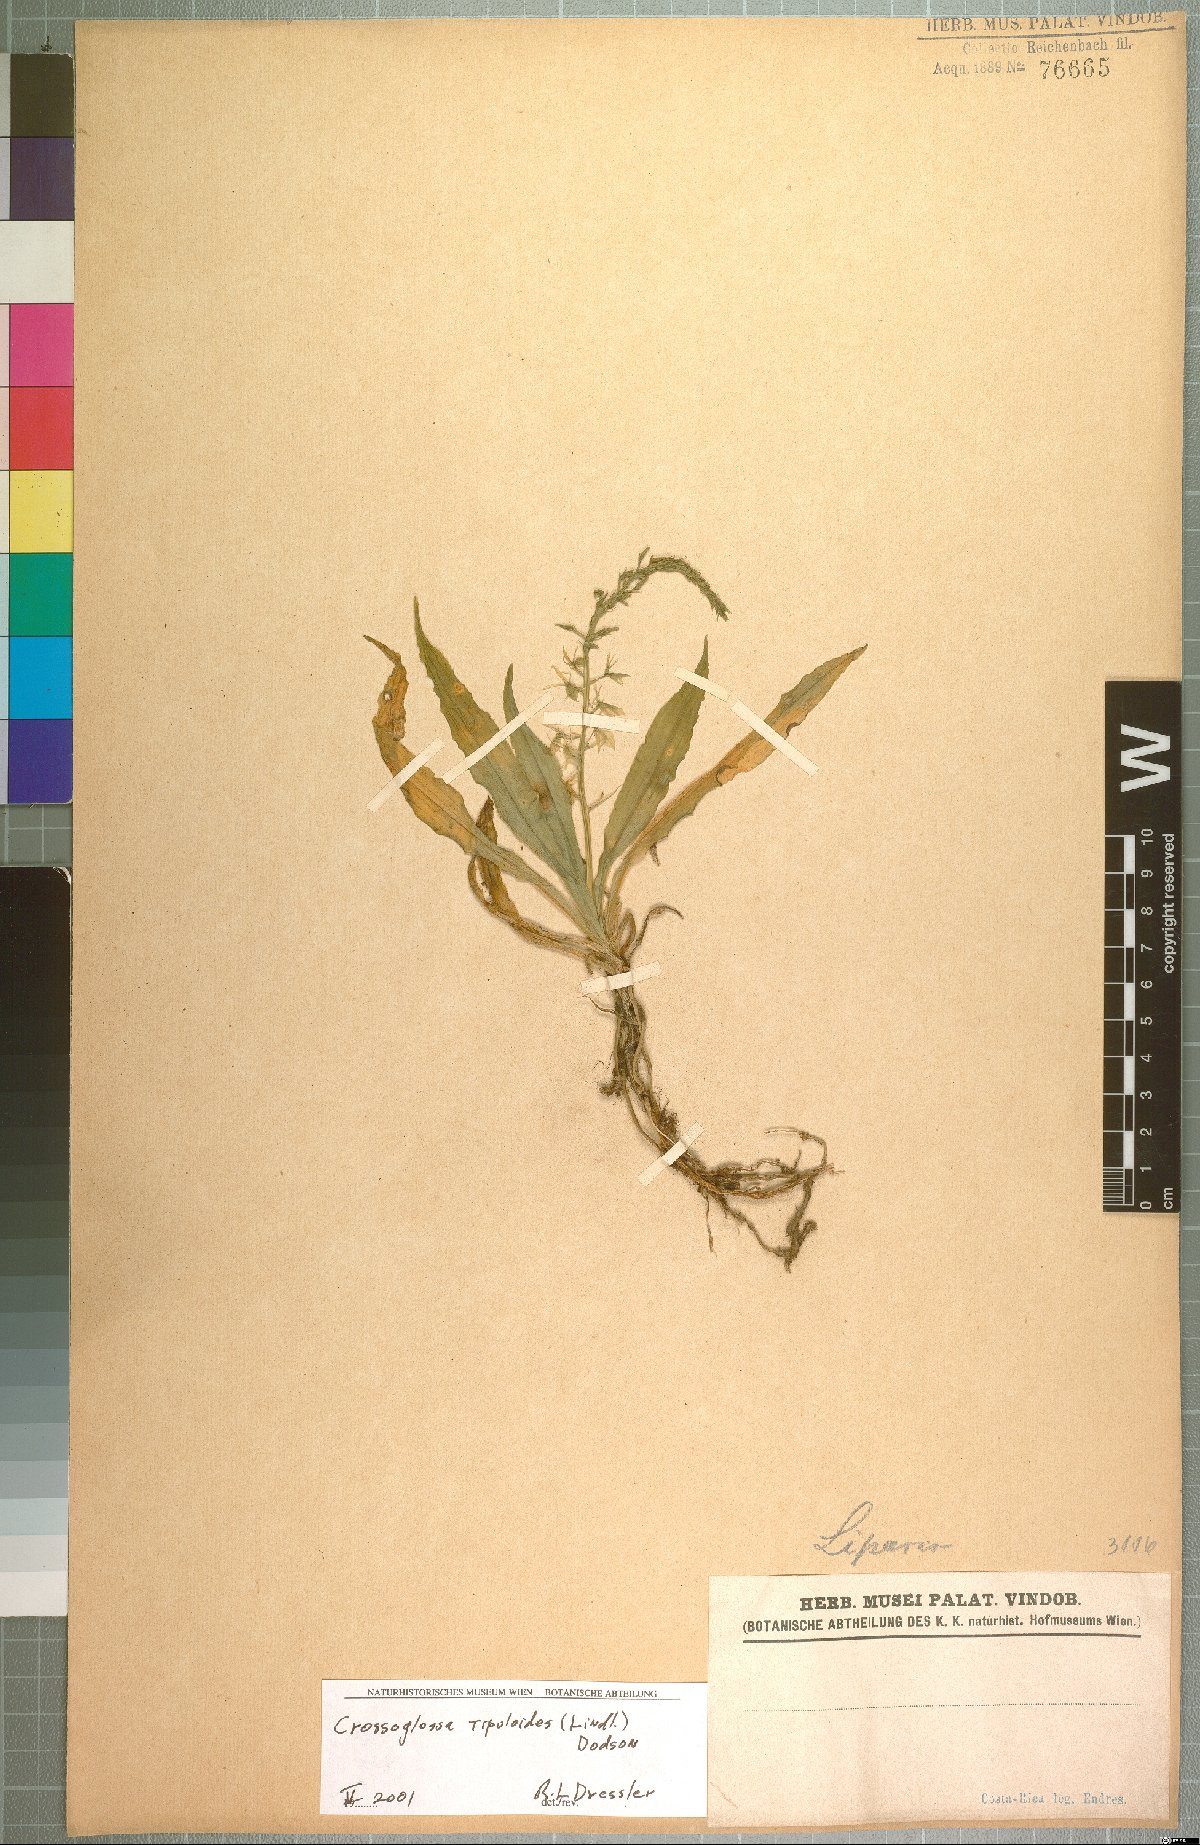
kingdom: Plantae
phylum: Tracheophyta
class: Liliopsida
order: Asparagales
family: Orchidaceae
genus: Crossoglossa
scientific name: Crossoglossa tipuloides
